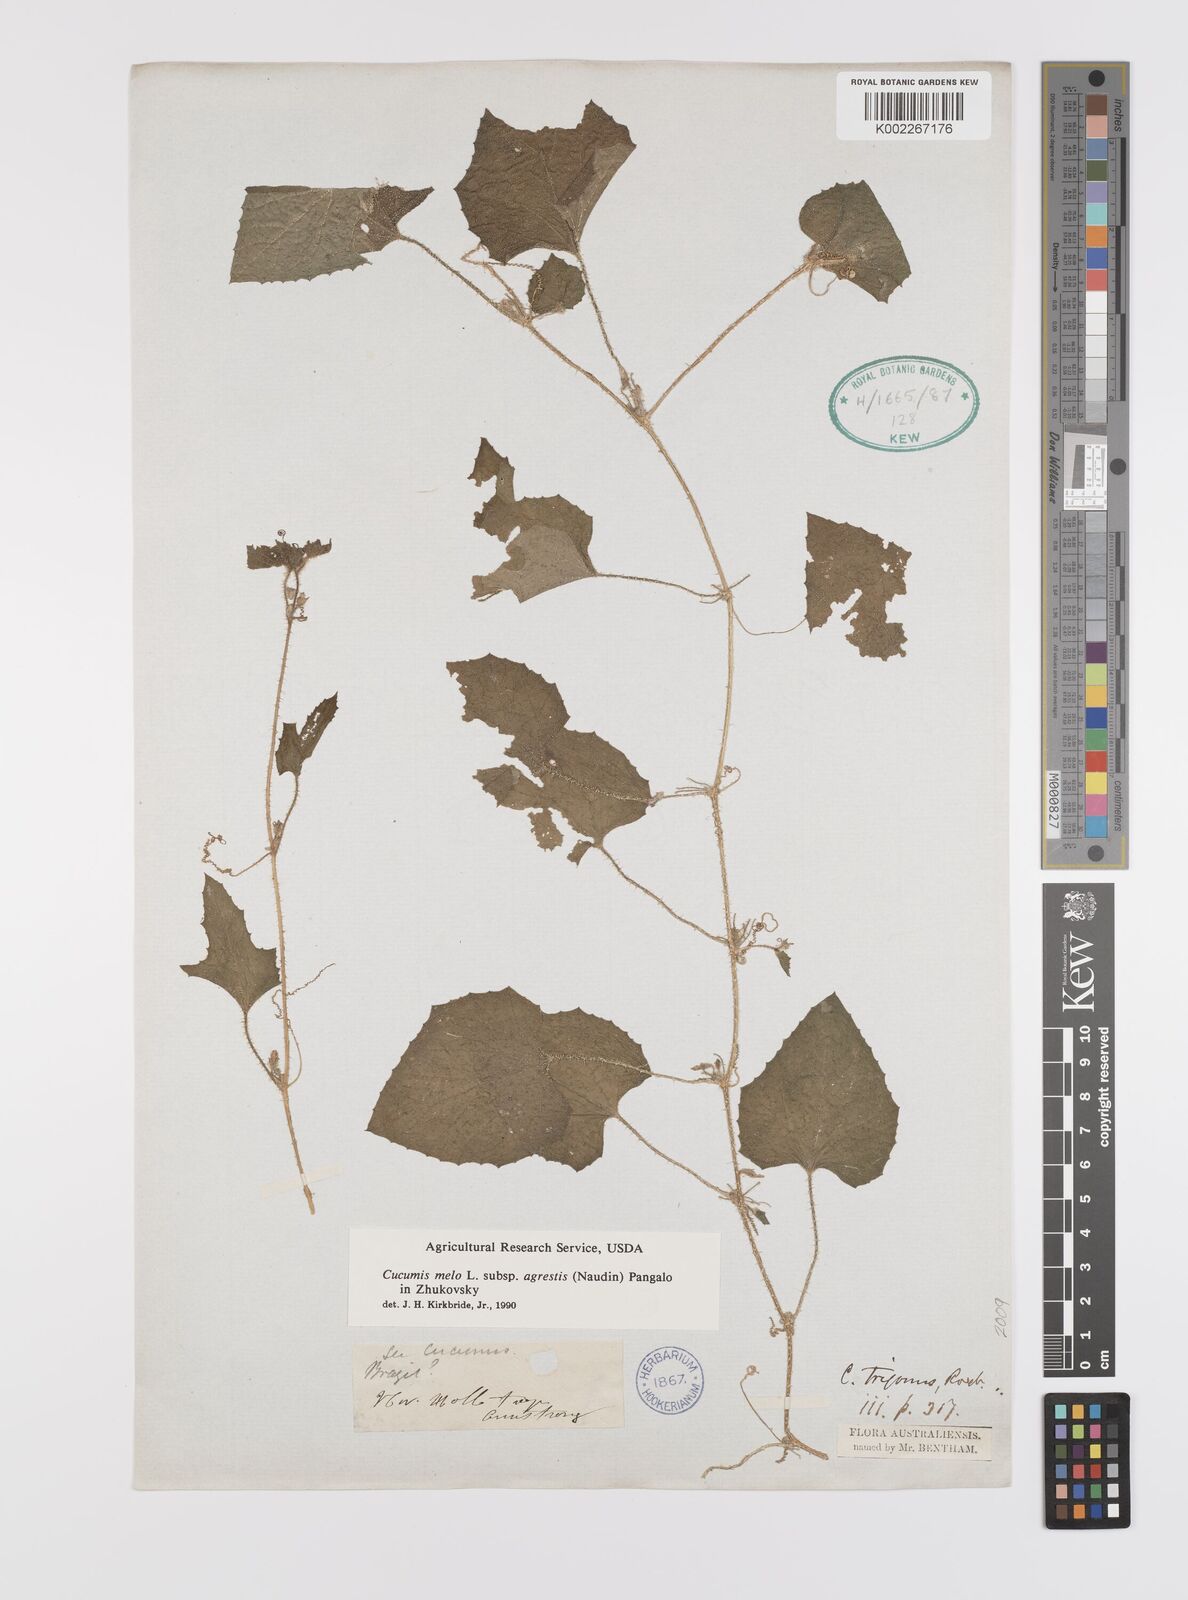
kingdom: Plantae
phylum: Tracheophyta
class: Magnoliopsida
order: Cucurbitales
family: Cucurbitaceae
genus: Cucumis
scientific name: Cucumis melo
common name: Melon
